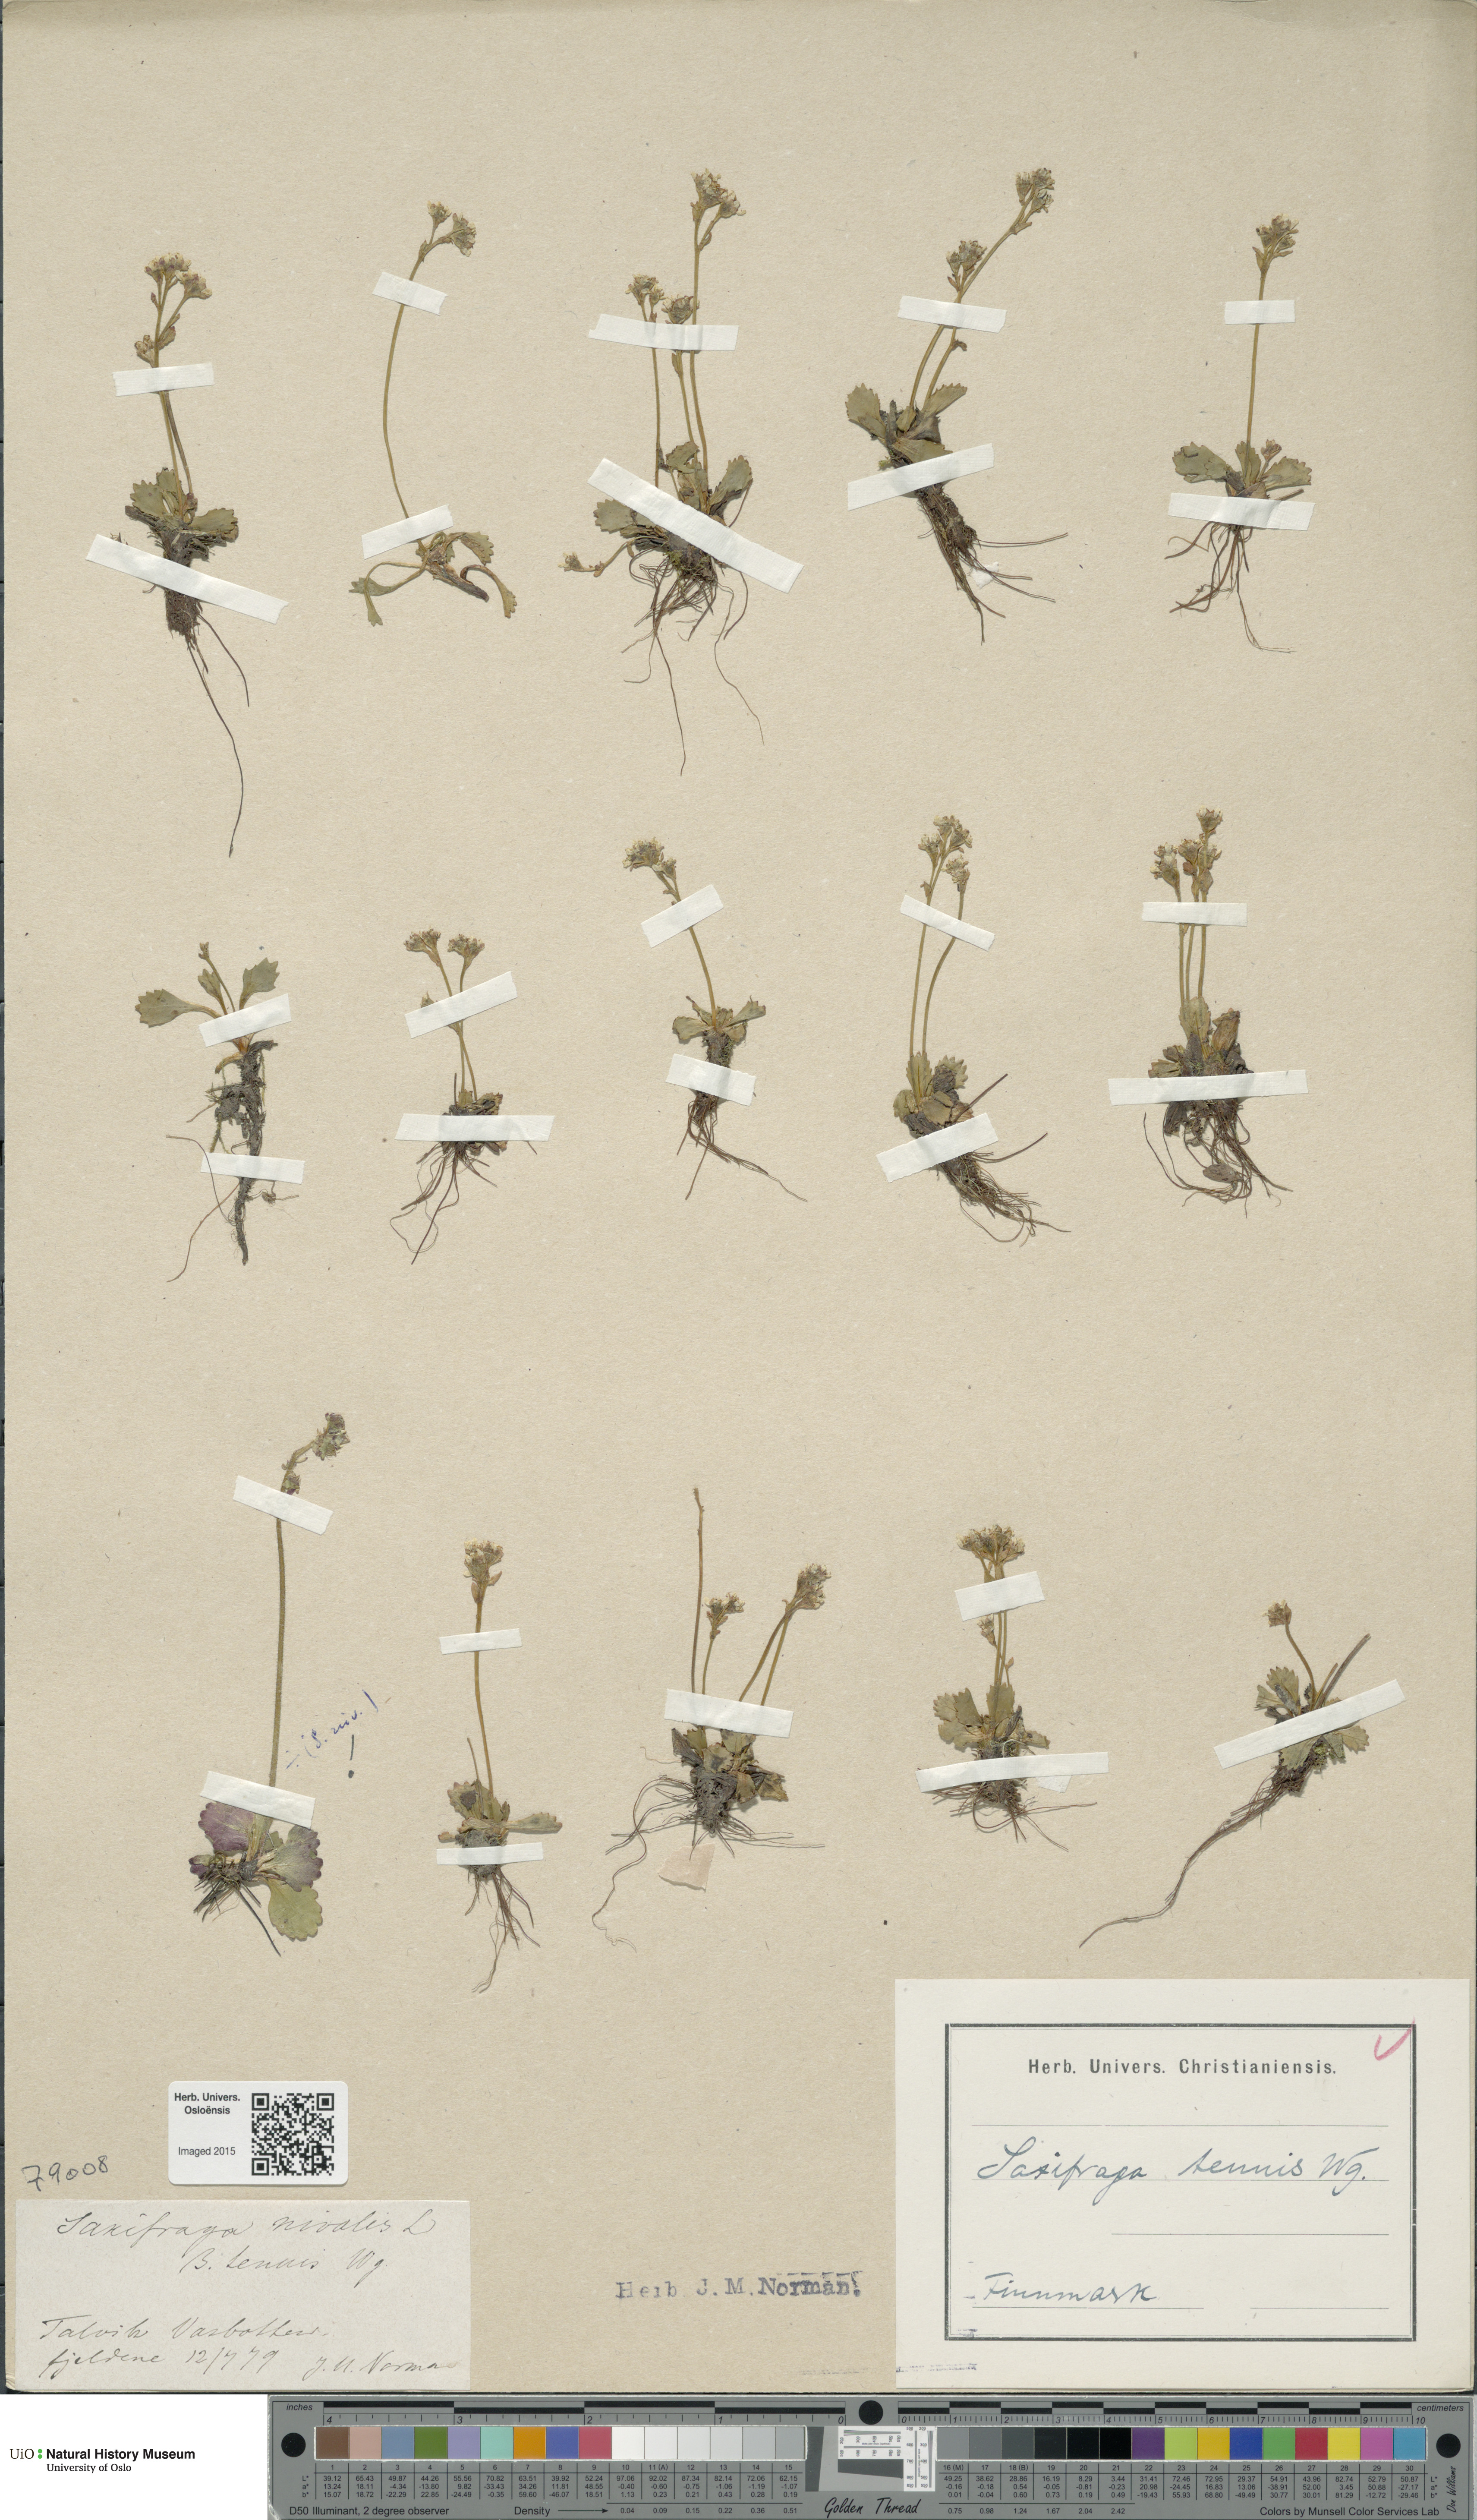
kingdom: Plantae
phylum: Tracheophyta
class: Magnoliopsida
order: Saxifragales
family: Saxifragaceae
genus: Micranthes
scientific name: Micranthes tenuis
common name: Ottertail pass saxifrage
